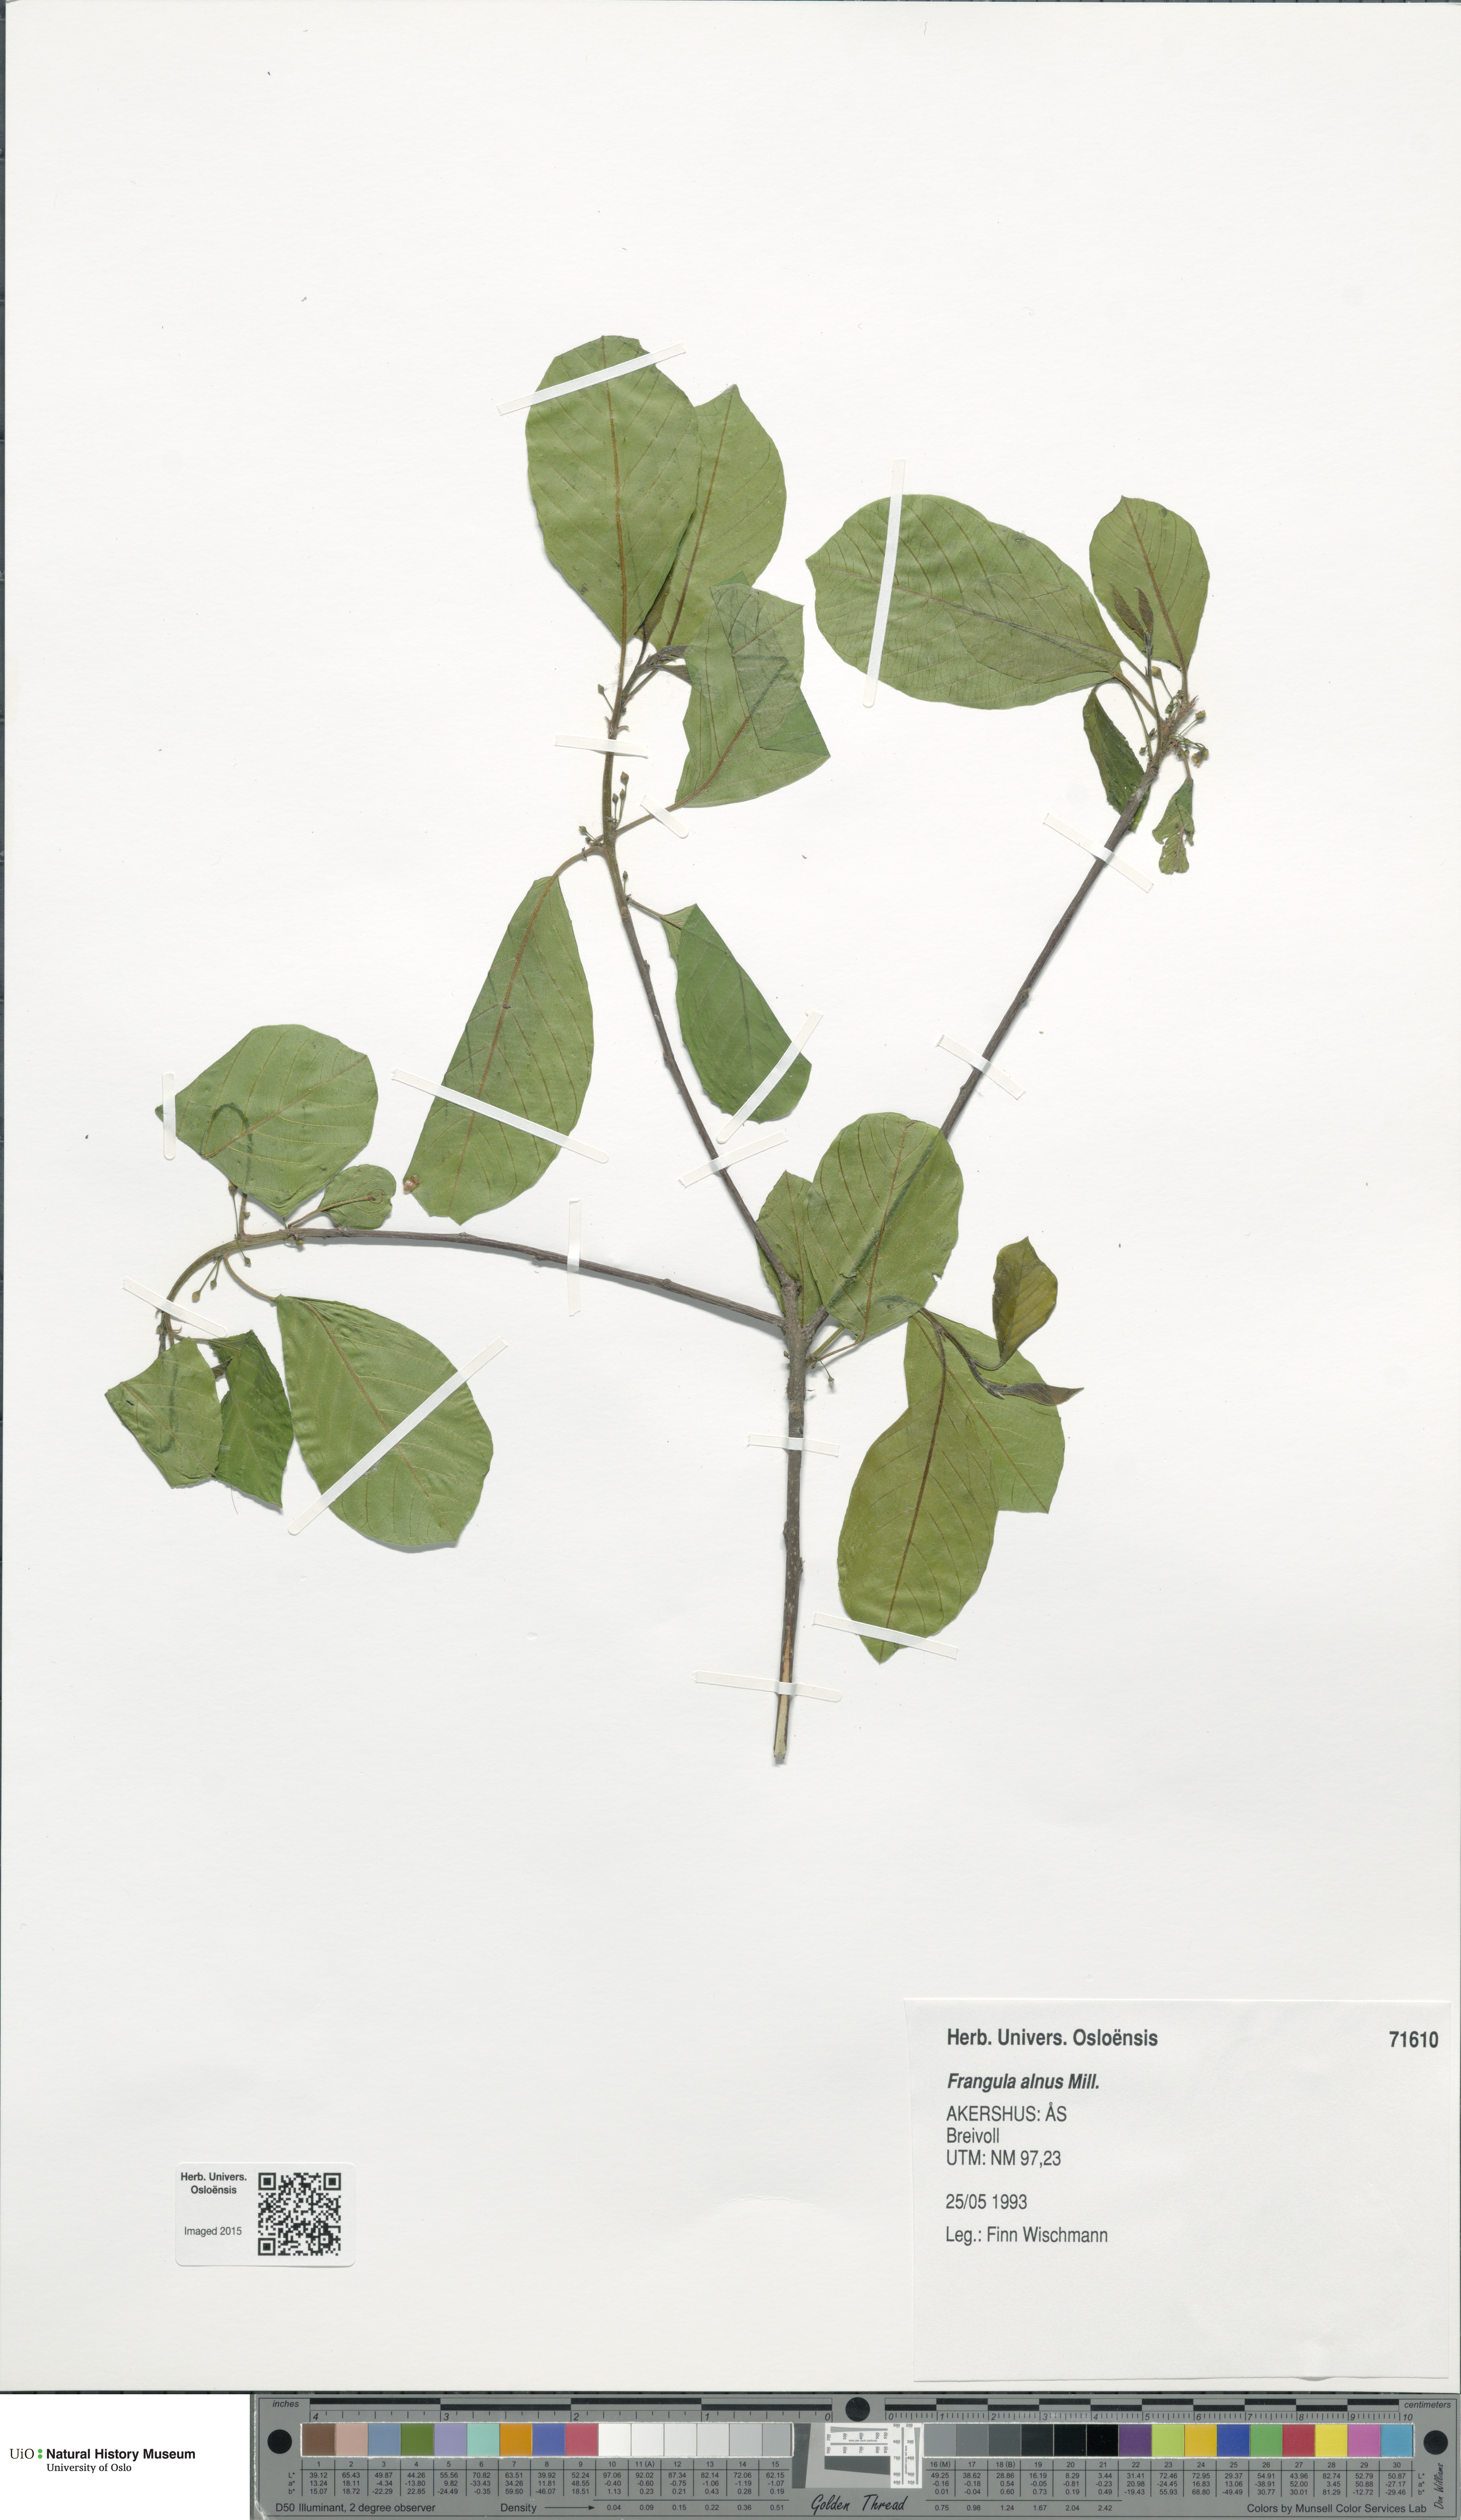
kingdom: Plantae
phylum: Tracheophyta
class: Magnoliopsida
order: Rosales
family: Rhamnaceae
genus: Frangula
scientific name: Frangula alnus
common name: Alder buckthorn
